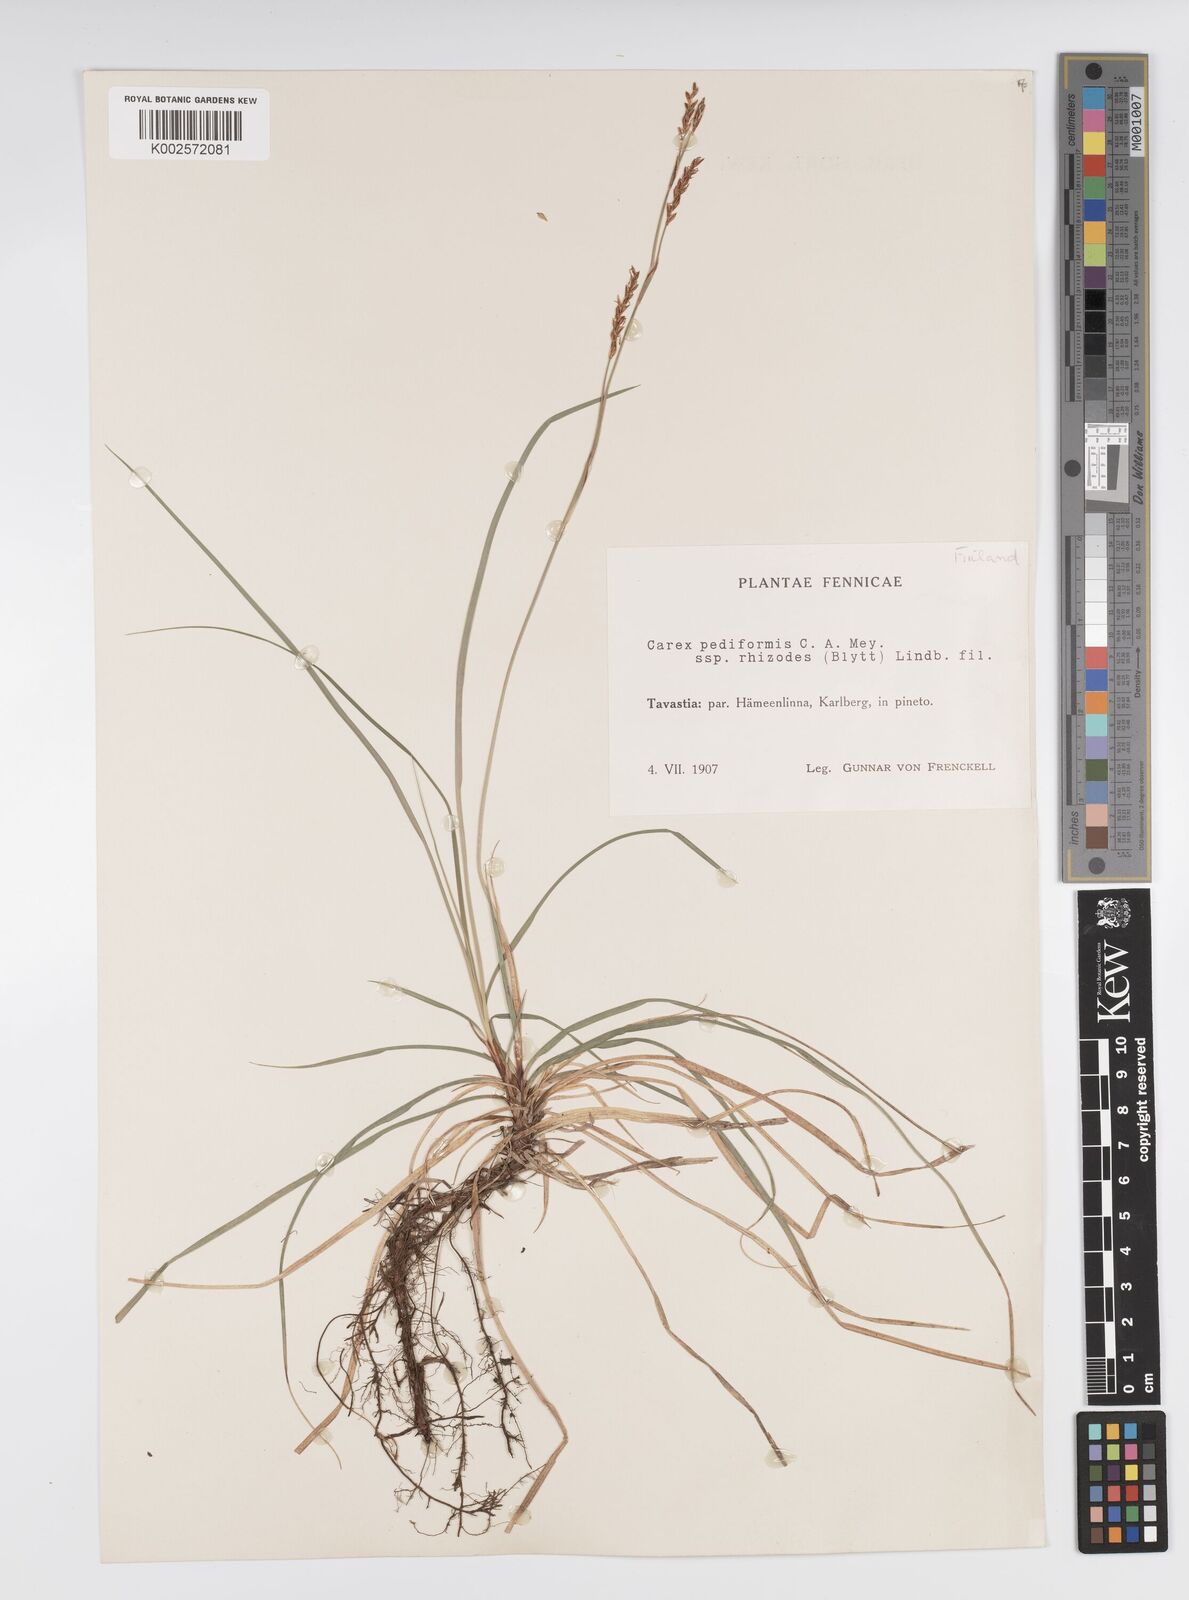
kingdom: Plantae
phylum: Tracheophyta
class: Liliopsida
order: Poales
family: Cyperaceae
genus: Carex
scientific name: Carex pediformis
